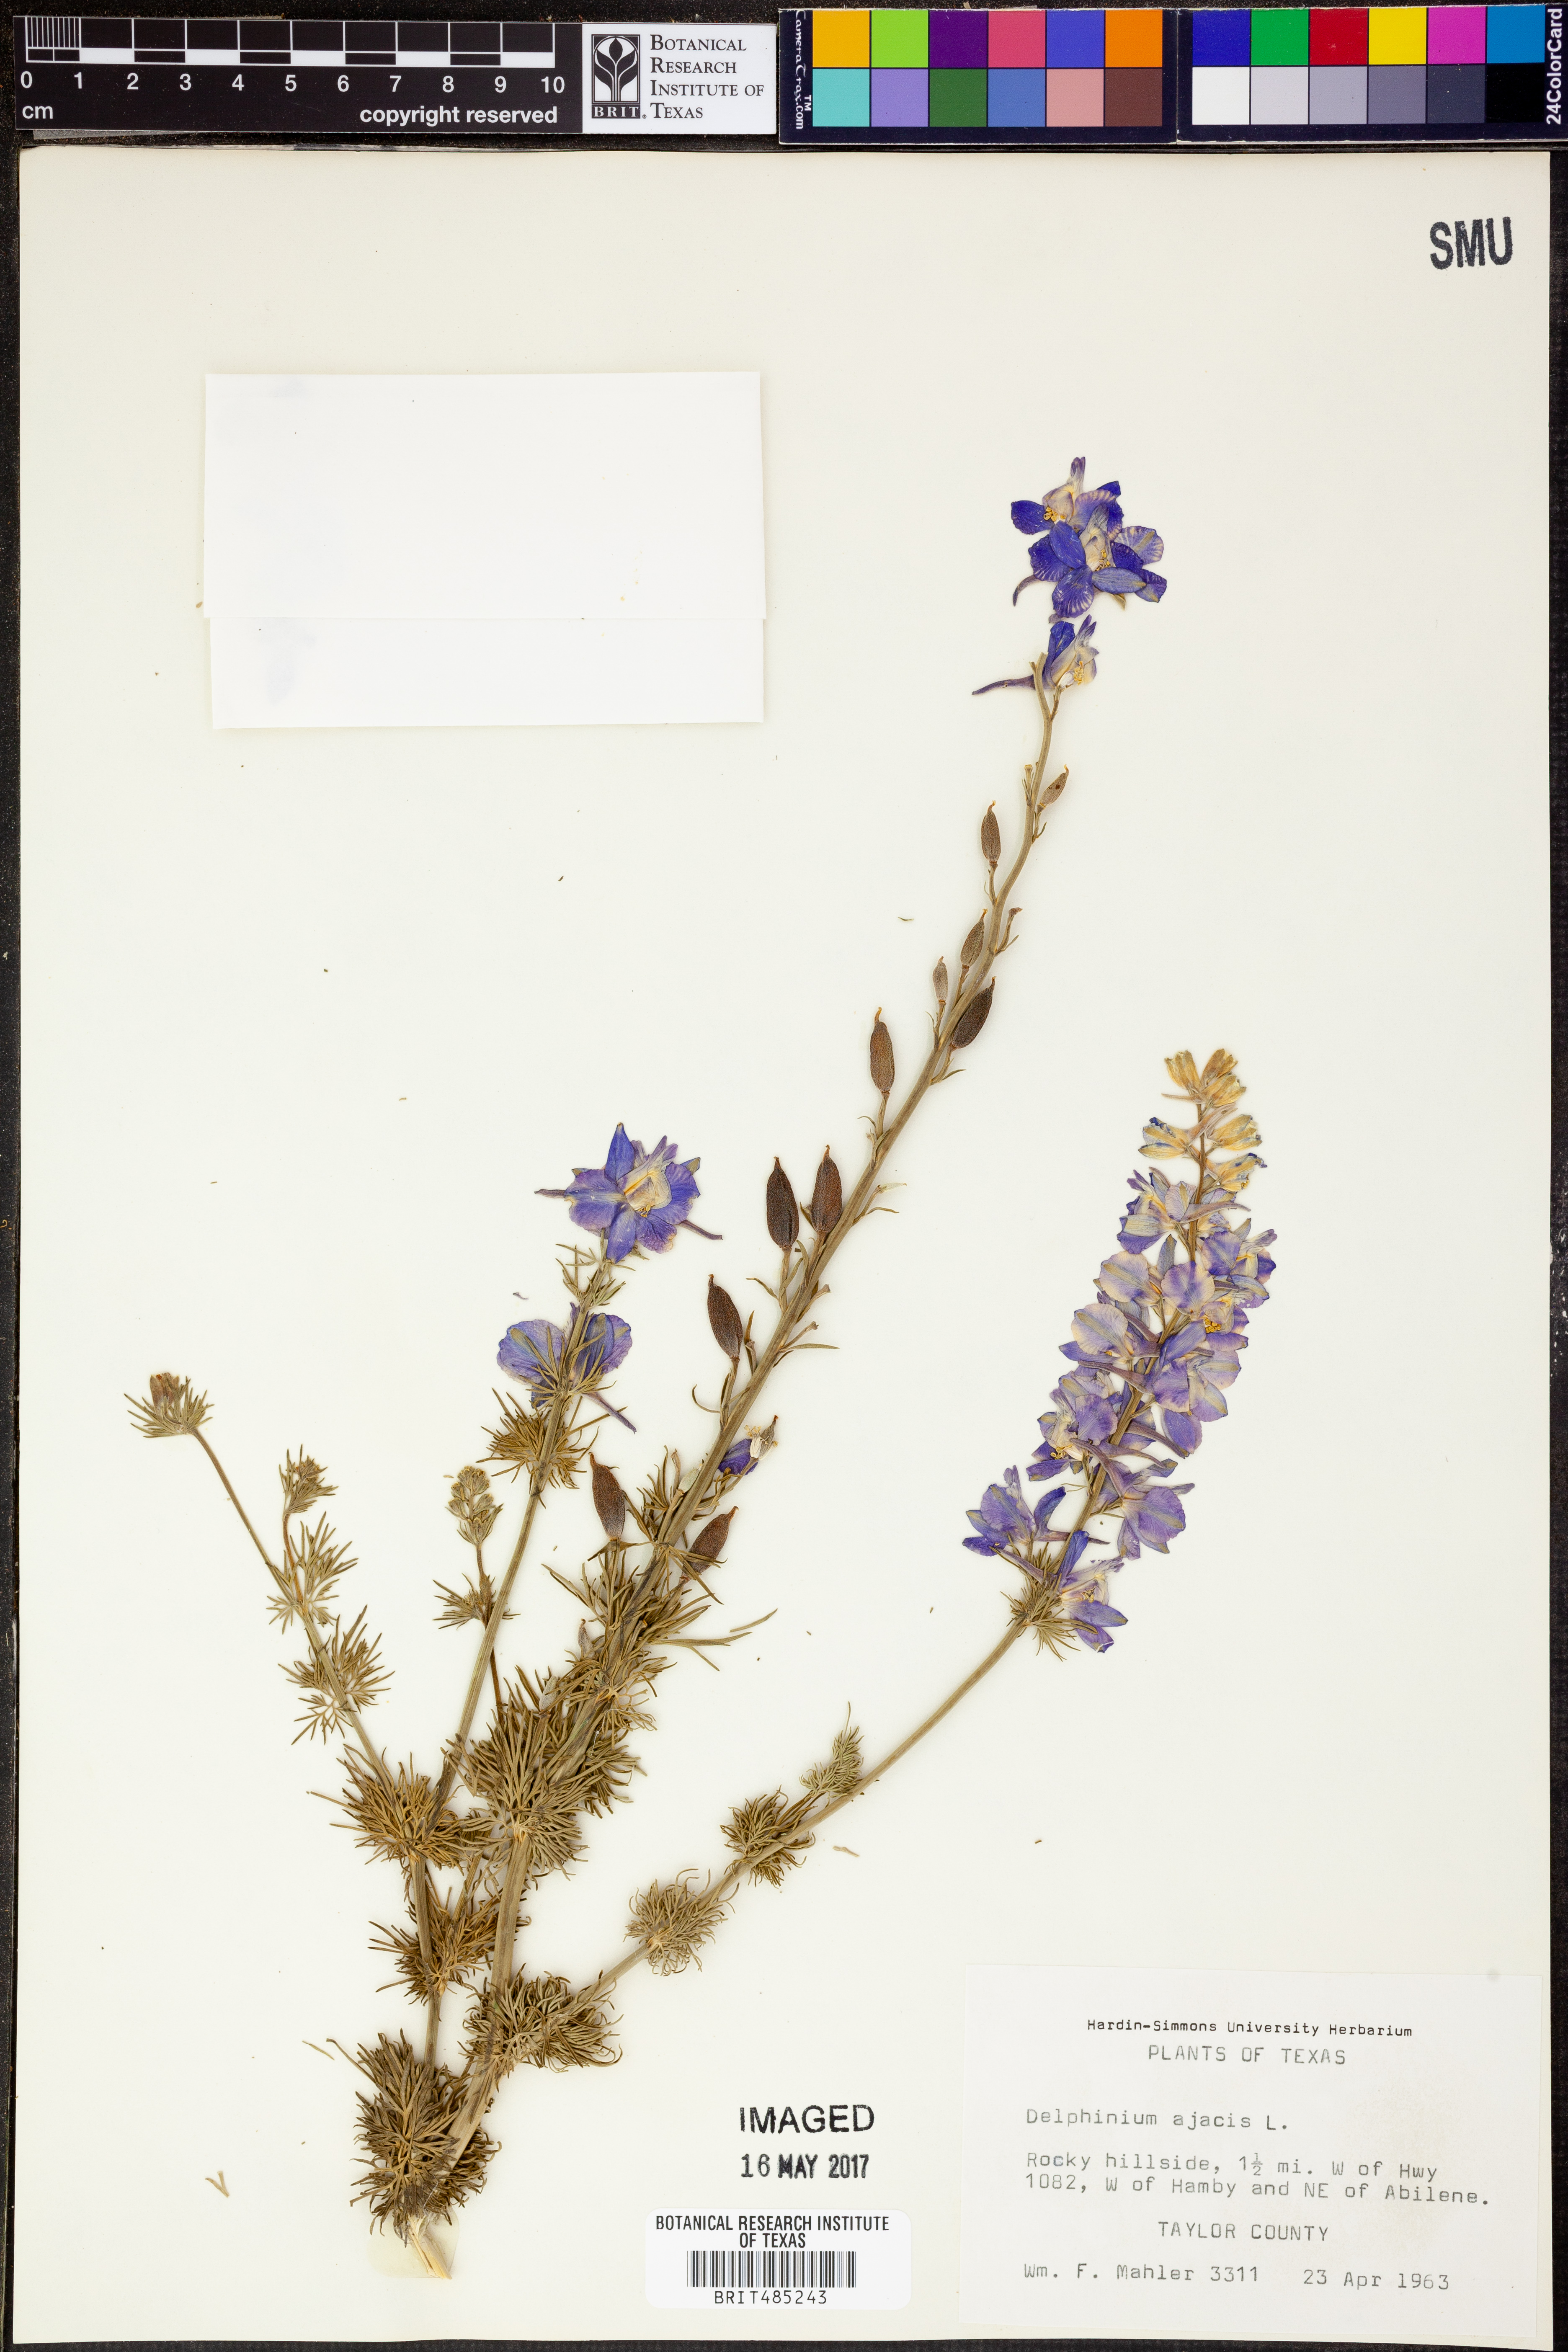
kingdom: Plantae
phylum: Tracheophyta
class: Magnoliopsida
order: Ranunculales
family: Ranunculaceae
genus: Delphinium
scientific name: Delphinium ajacis
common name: Doubtful knight's-spur
